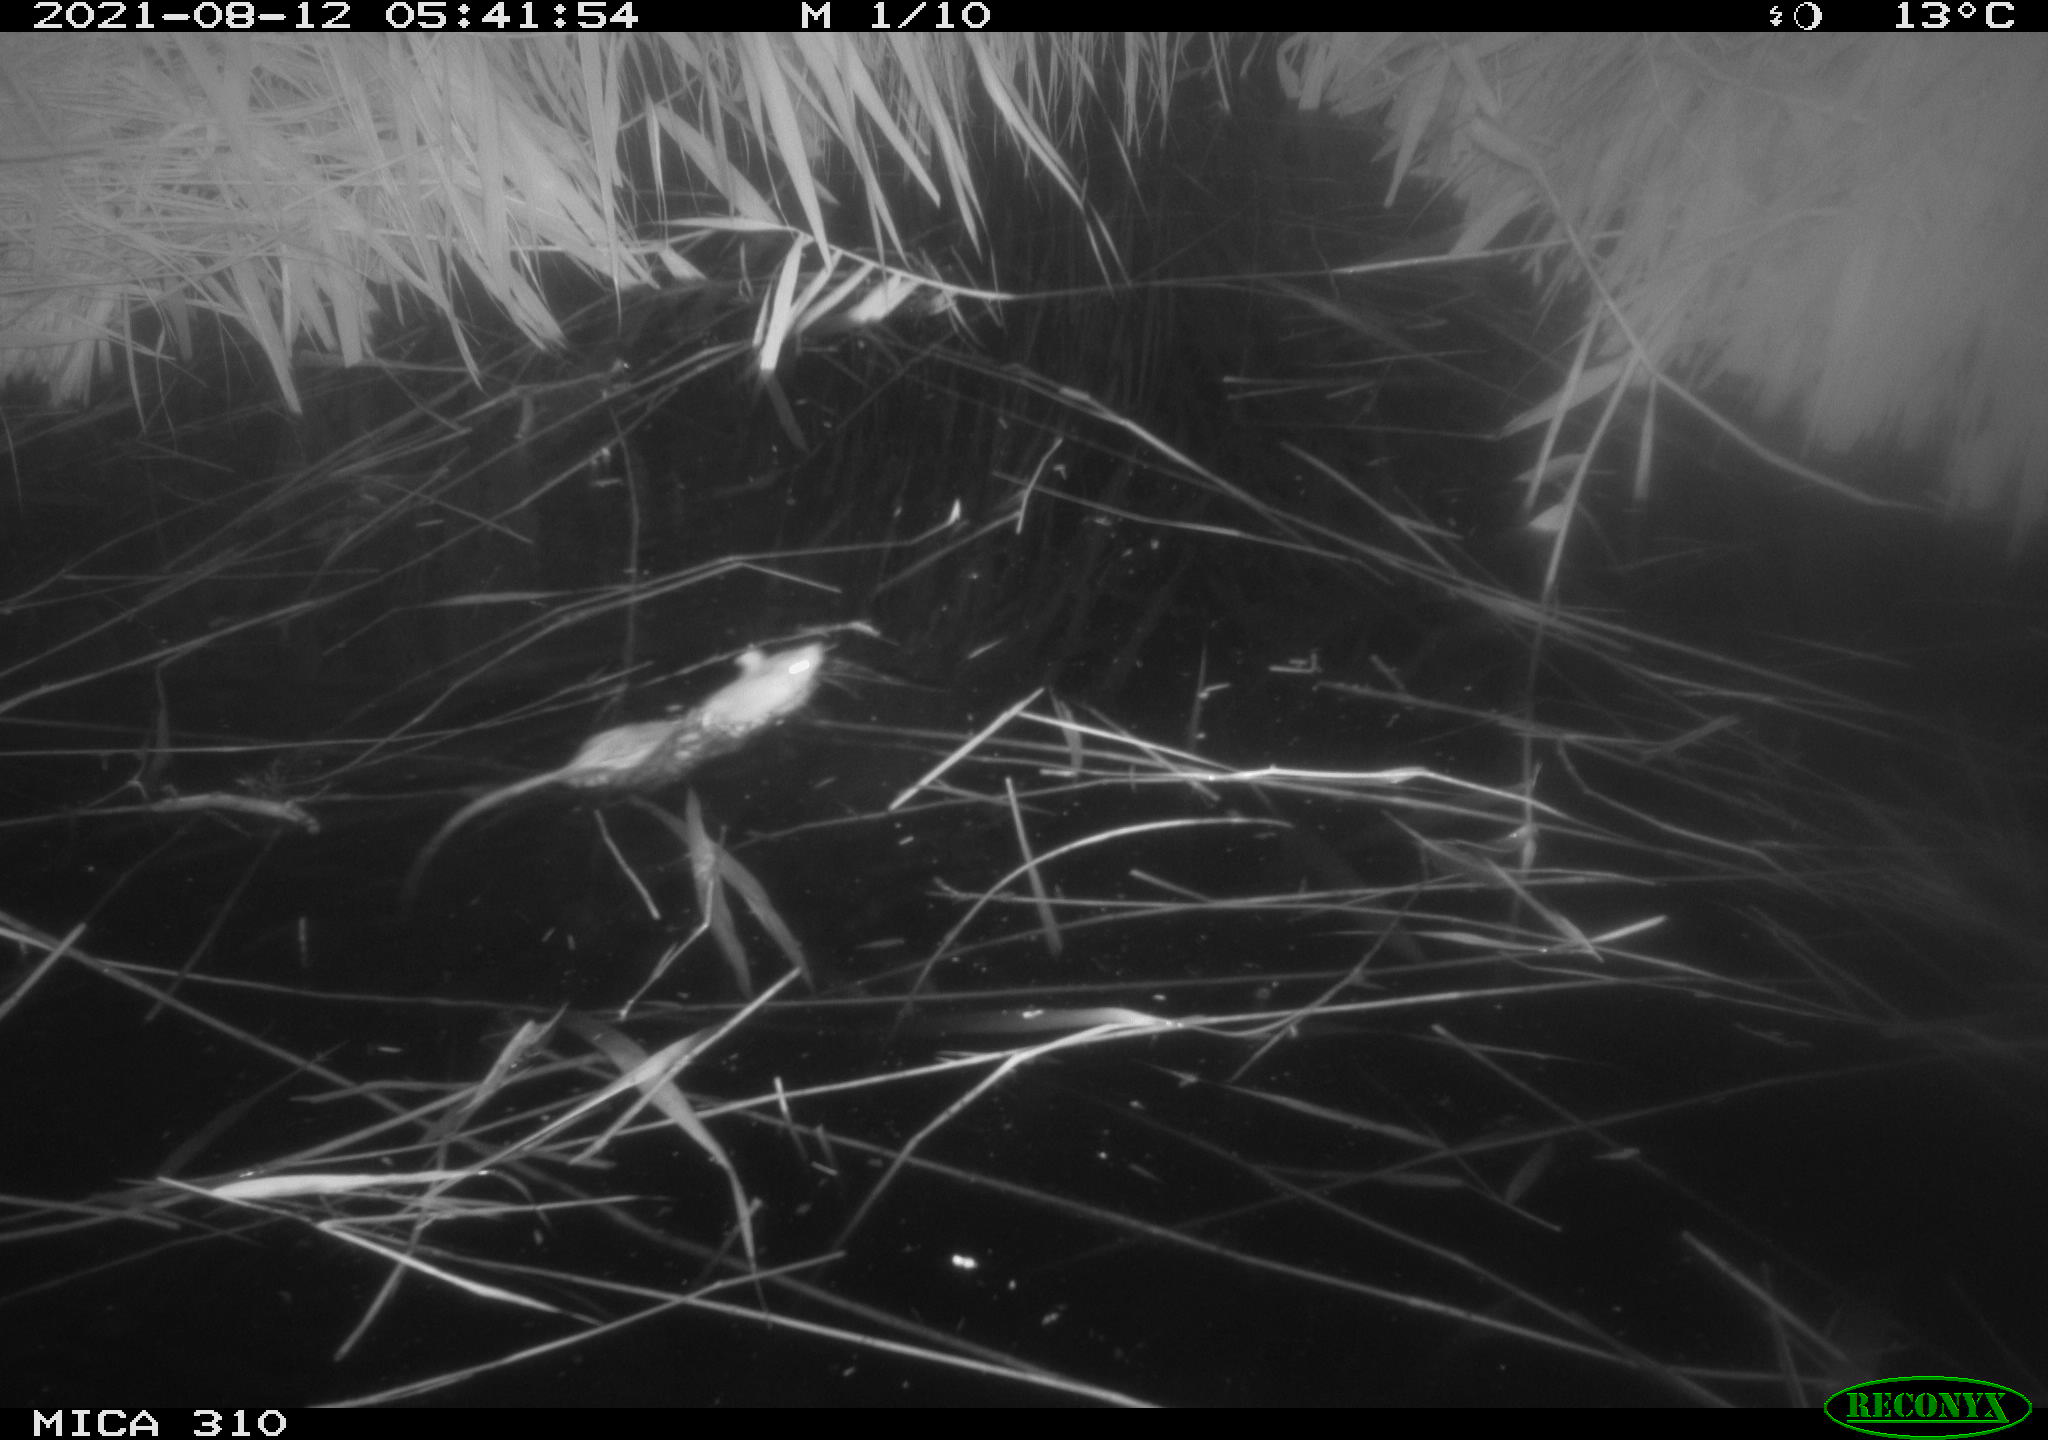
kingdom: Animalia
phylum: Chordata
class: Mammalia
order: Rodentia
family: Muridae
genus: Rattus
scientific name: Rattus norvegicus
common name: Brown rat
